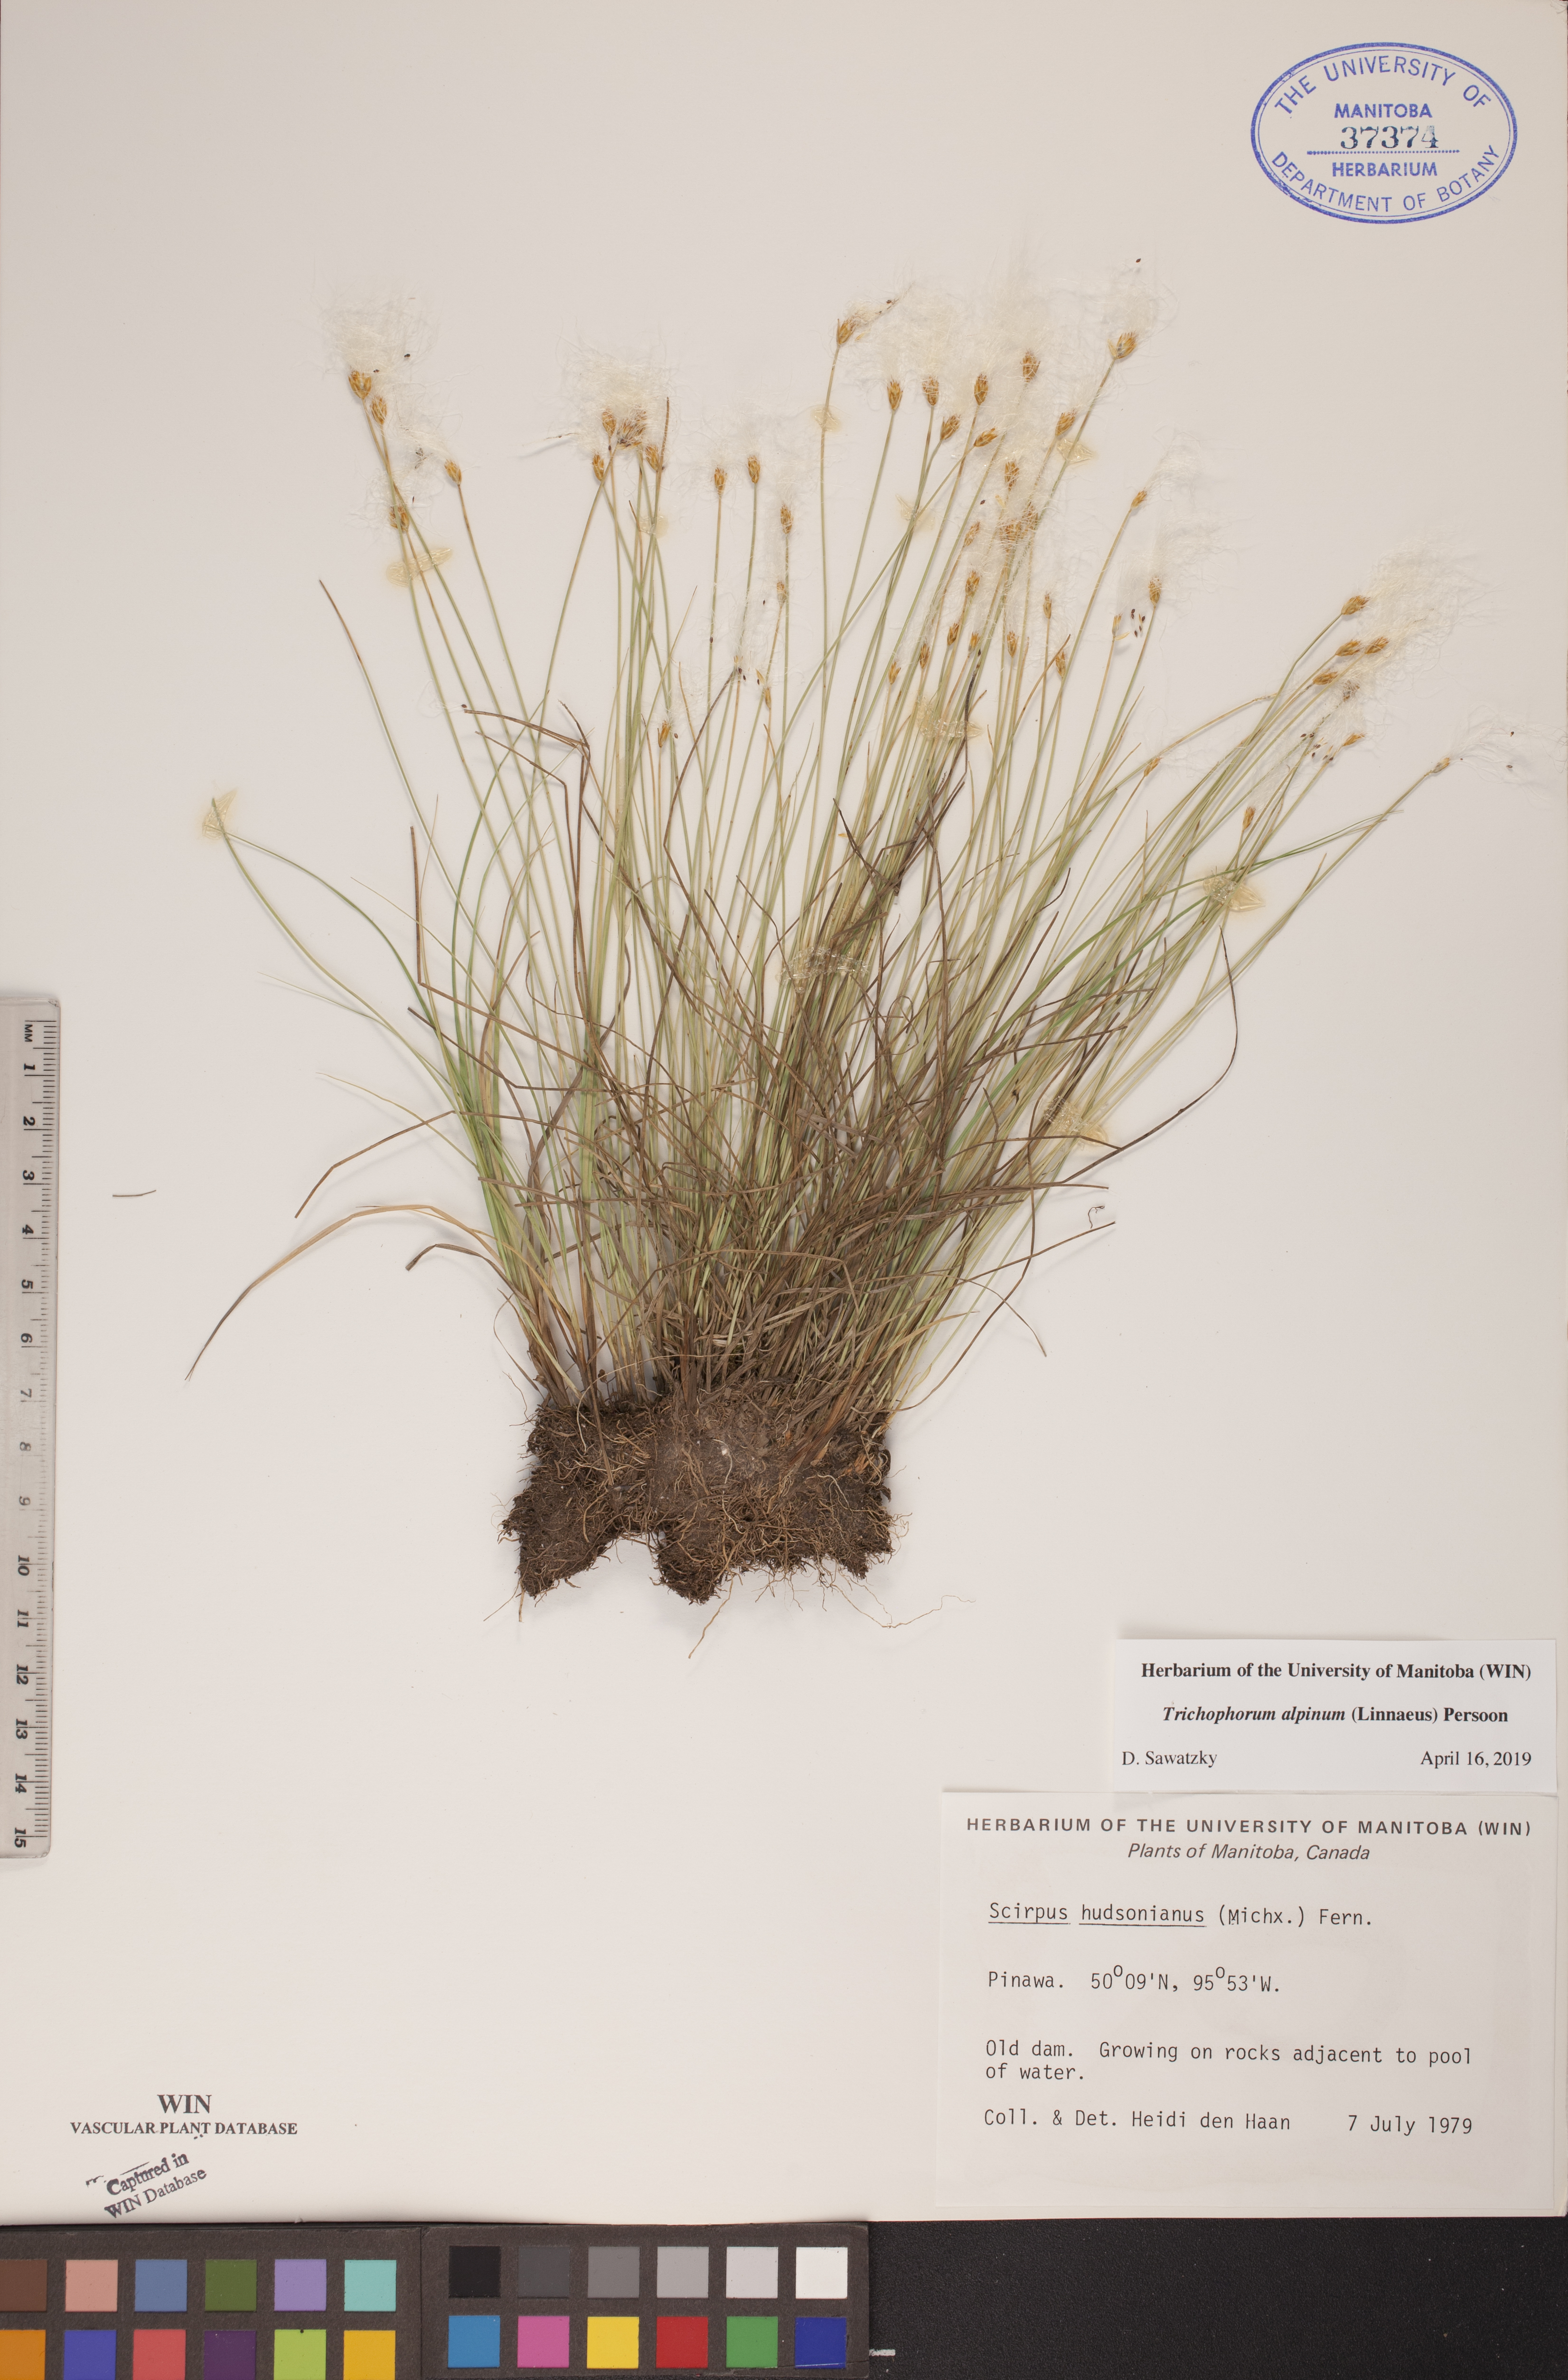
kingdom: Plantae
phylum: Tracheophyta
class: Liliopsida
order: Poales
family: Cyperaceae
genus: Trichophorum
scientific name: Trichophorum alpinum
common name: Alpine bulrush
